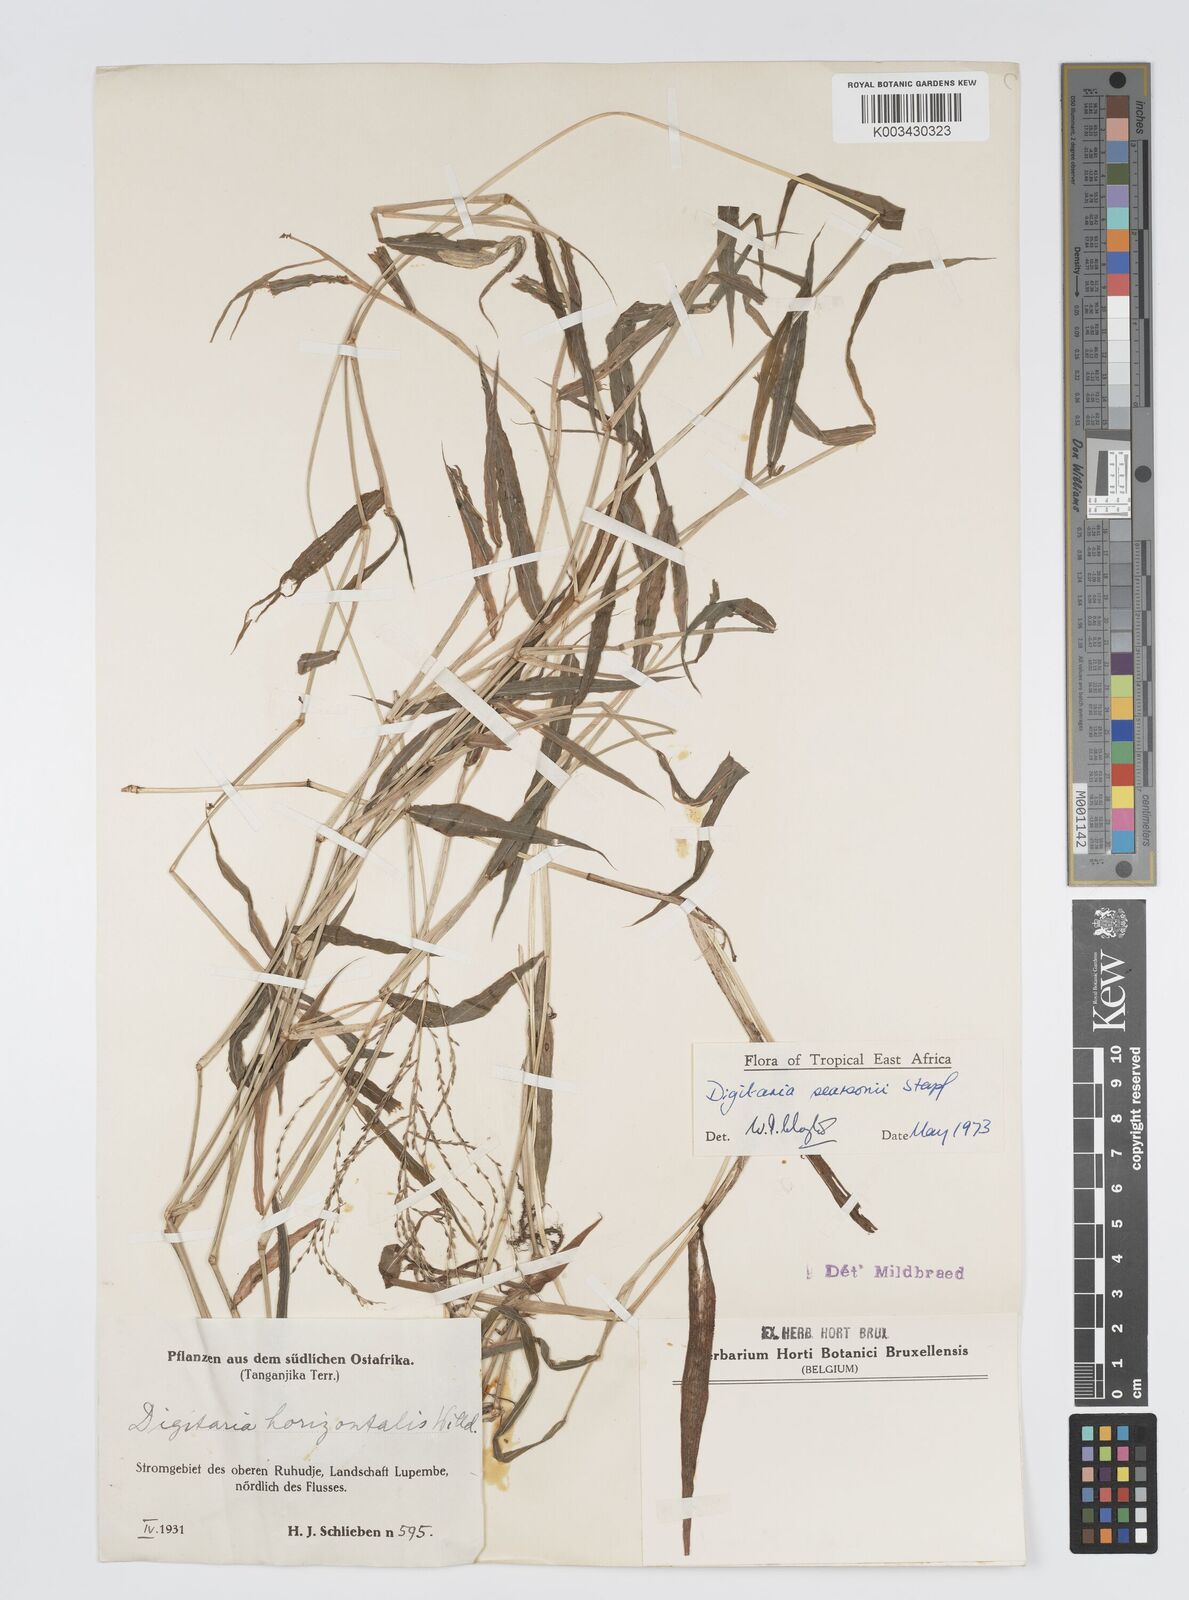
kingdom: Plantae
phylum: Tracheophyta
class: Liliopsida
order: Poales
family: Poaceae
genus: Digitaria
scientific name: Digitaria pearsonii
